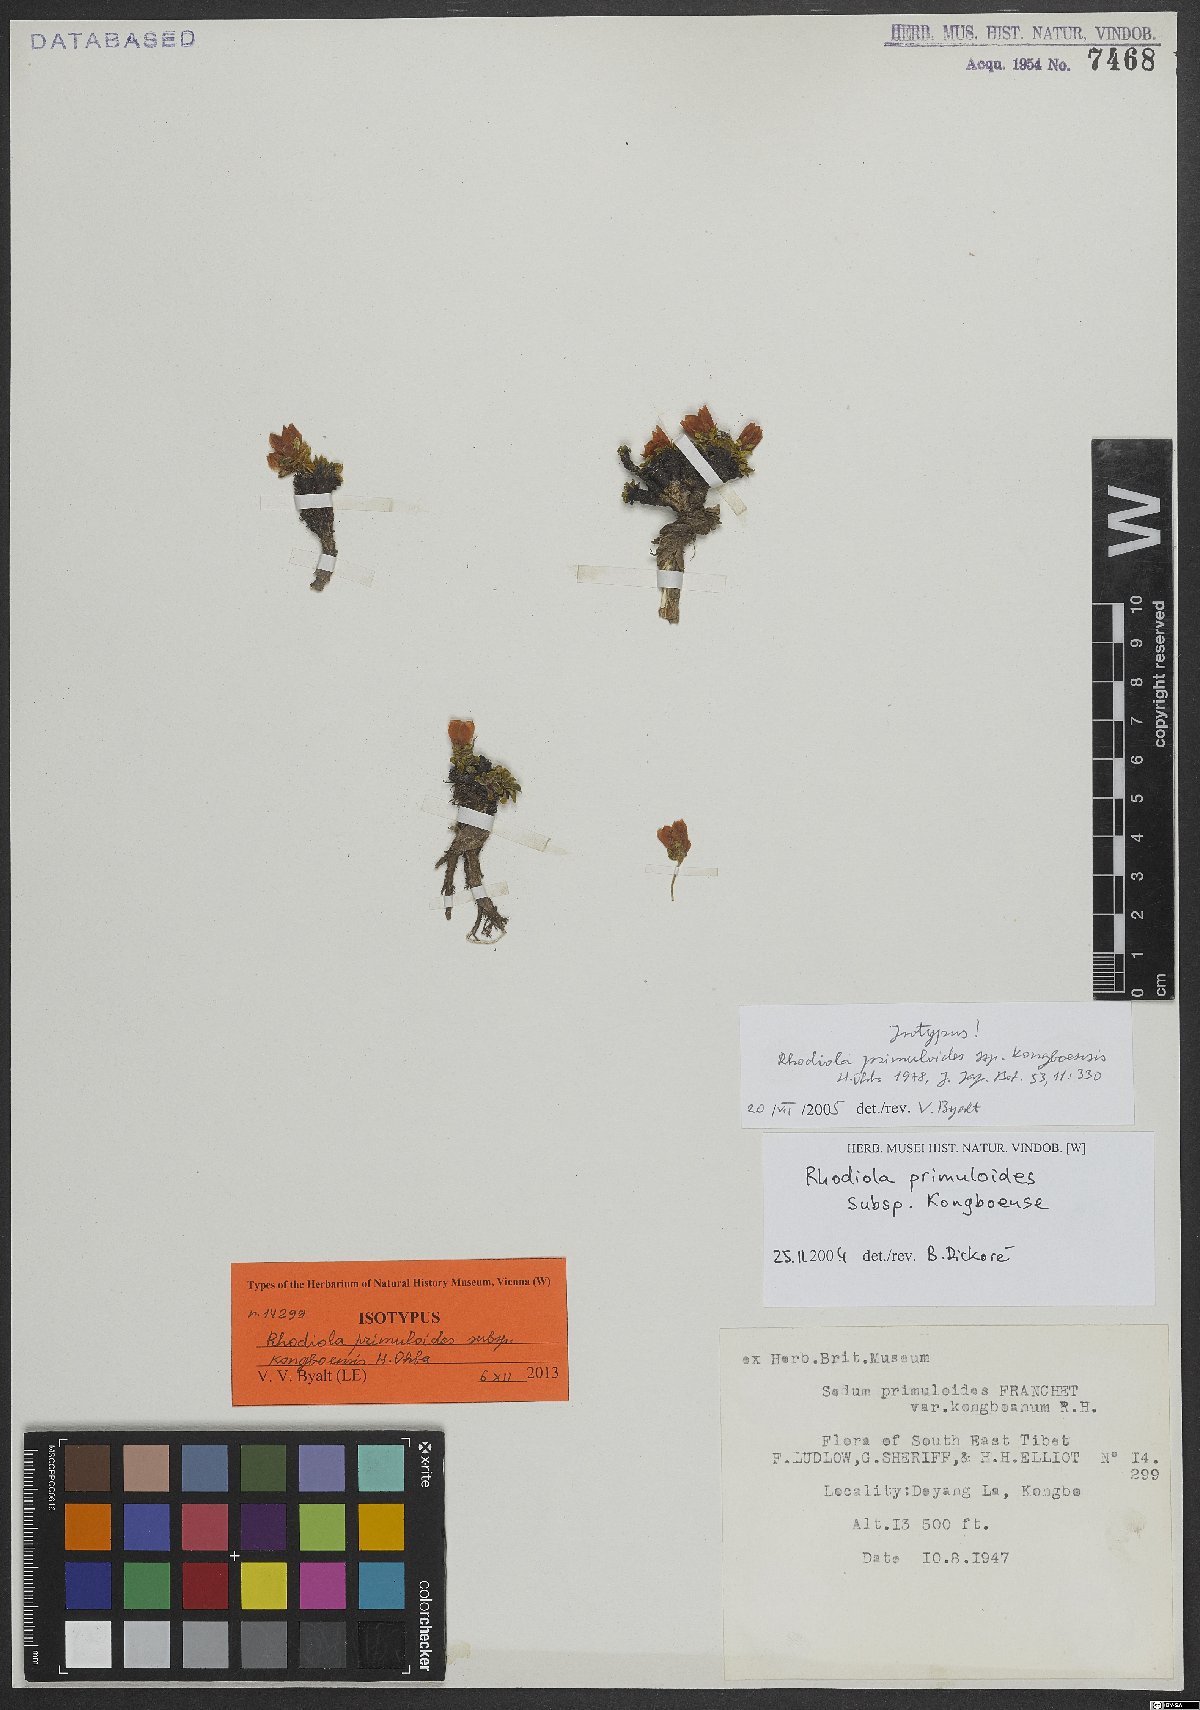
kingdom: Plantae
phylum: Tracheophyta
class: Magnoliopsida
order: Saxifragales
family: Crassulaceae
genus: Rhodiola
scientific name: Rhodiola primuloides
